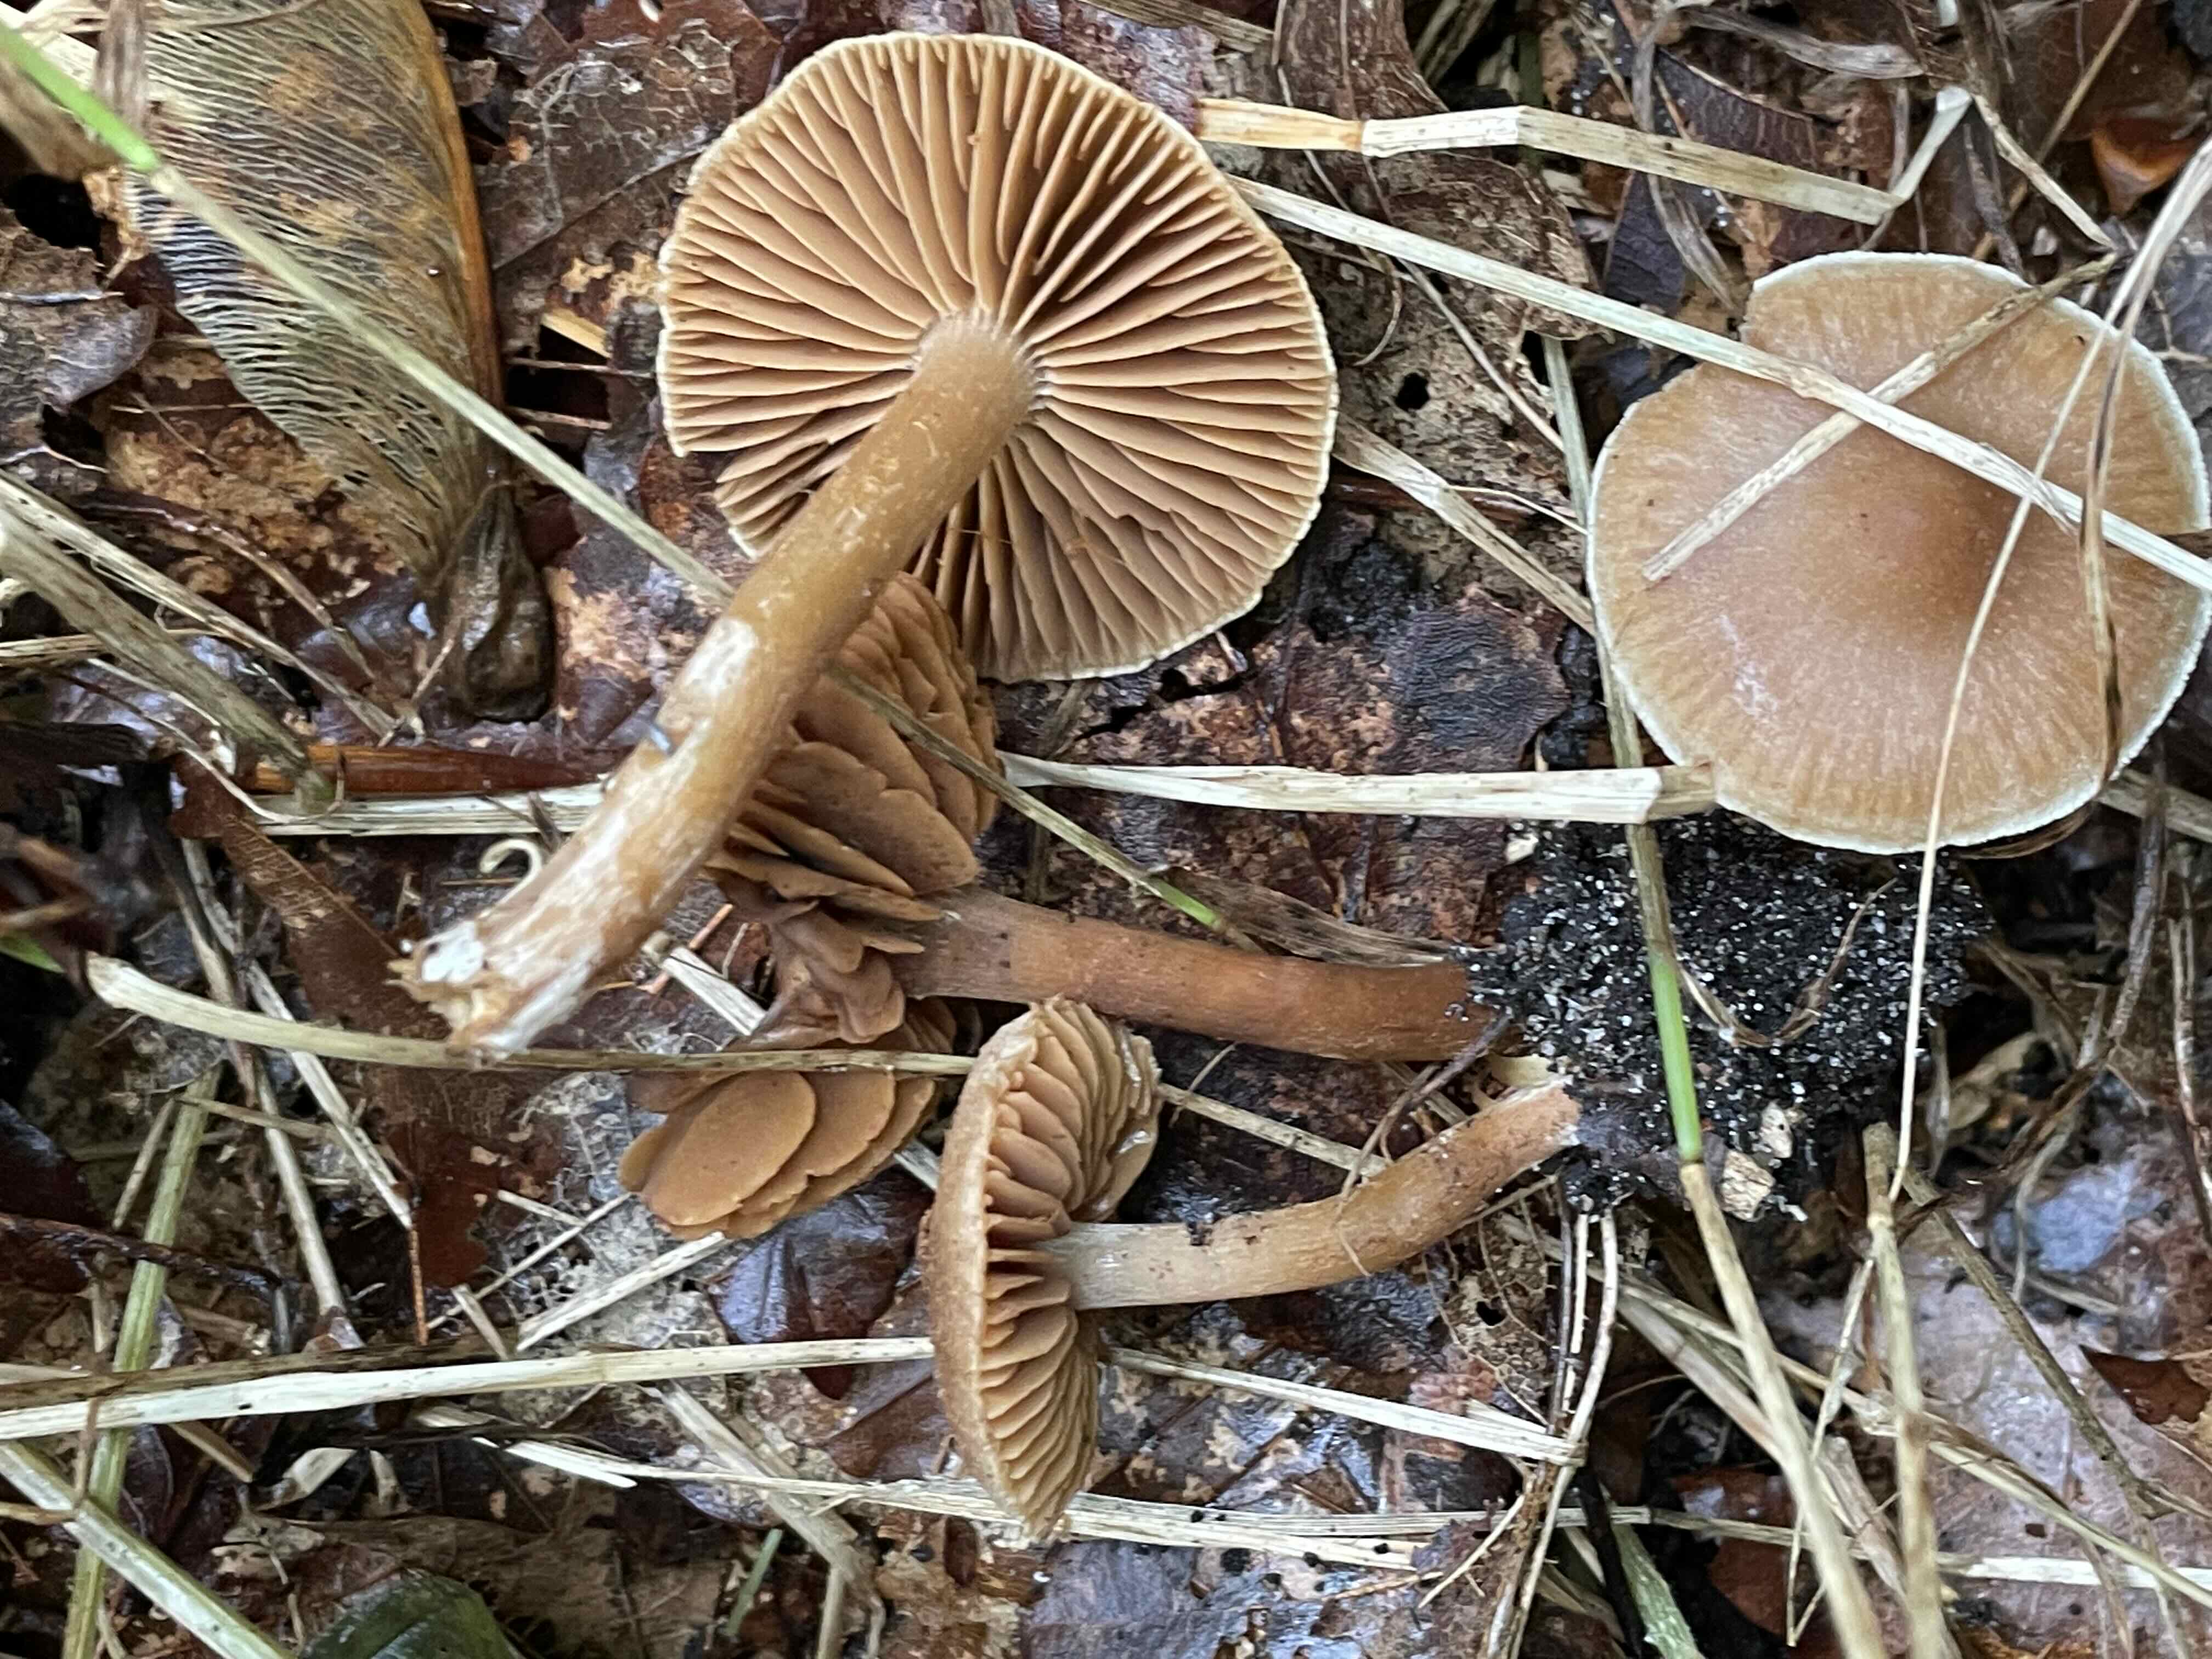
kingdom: Fungi
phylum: Basidiomycota
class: Agaricomycetes
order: Agaricales
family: Cortinariaceae
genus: Cortinarius
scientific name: Cortinarius
